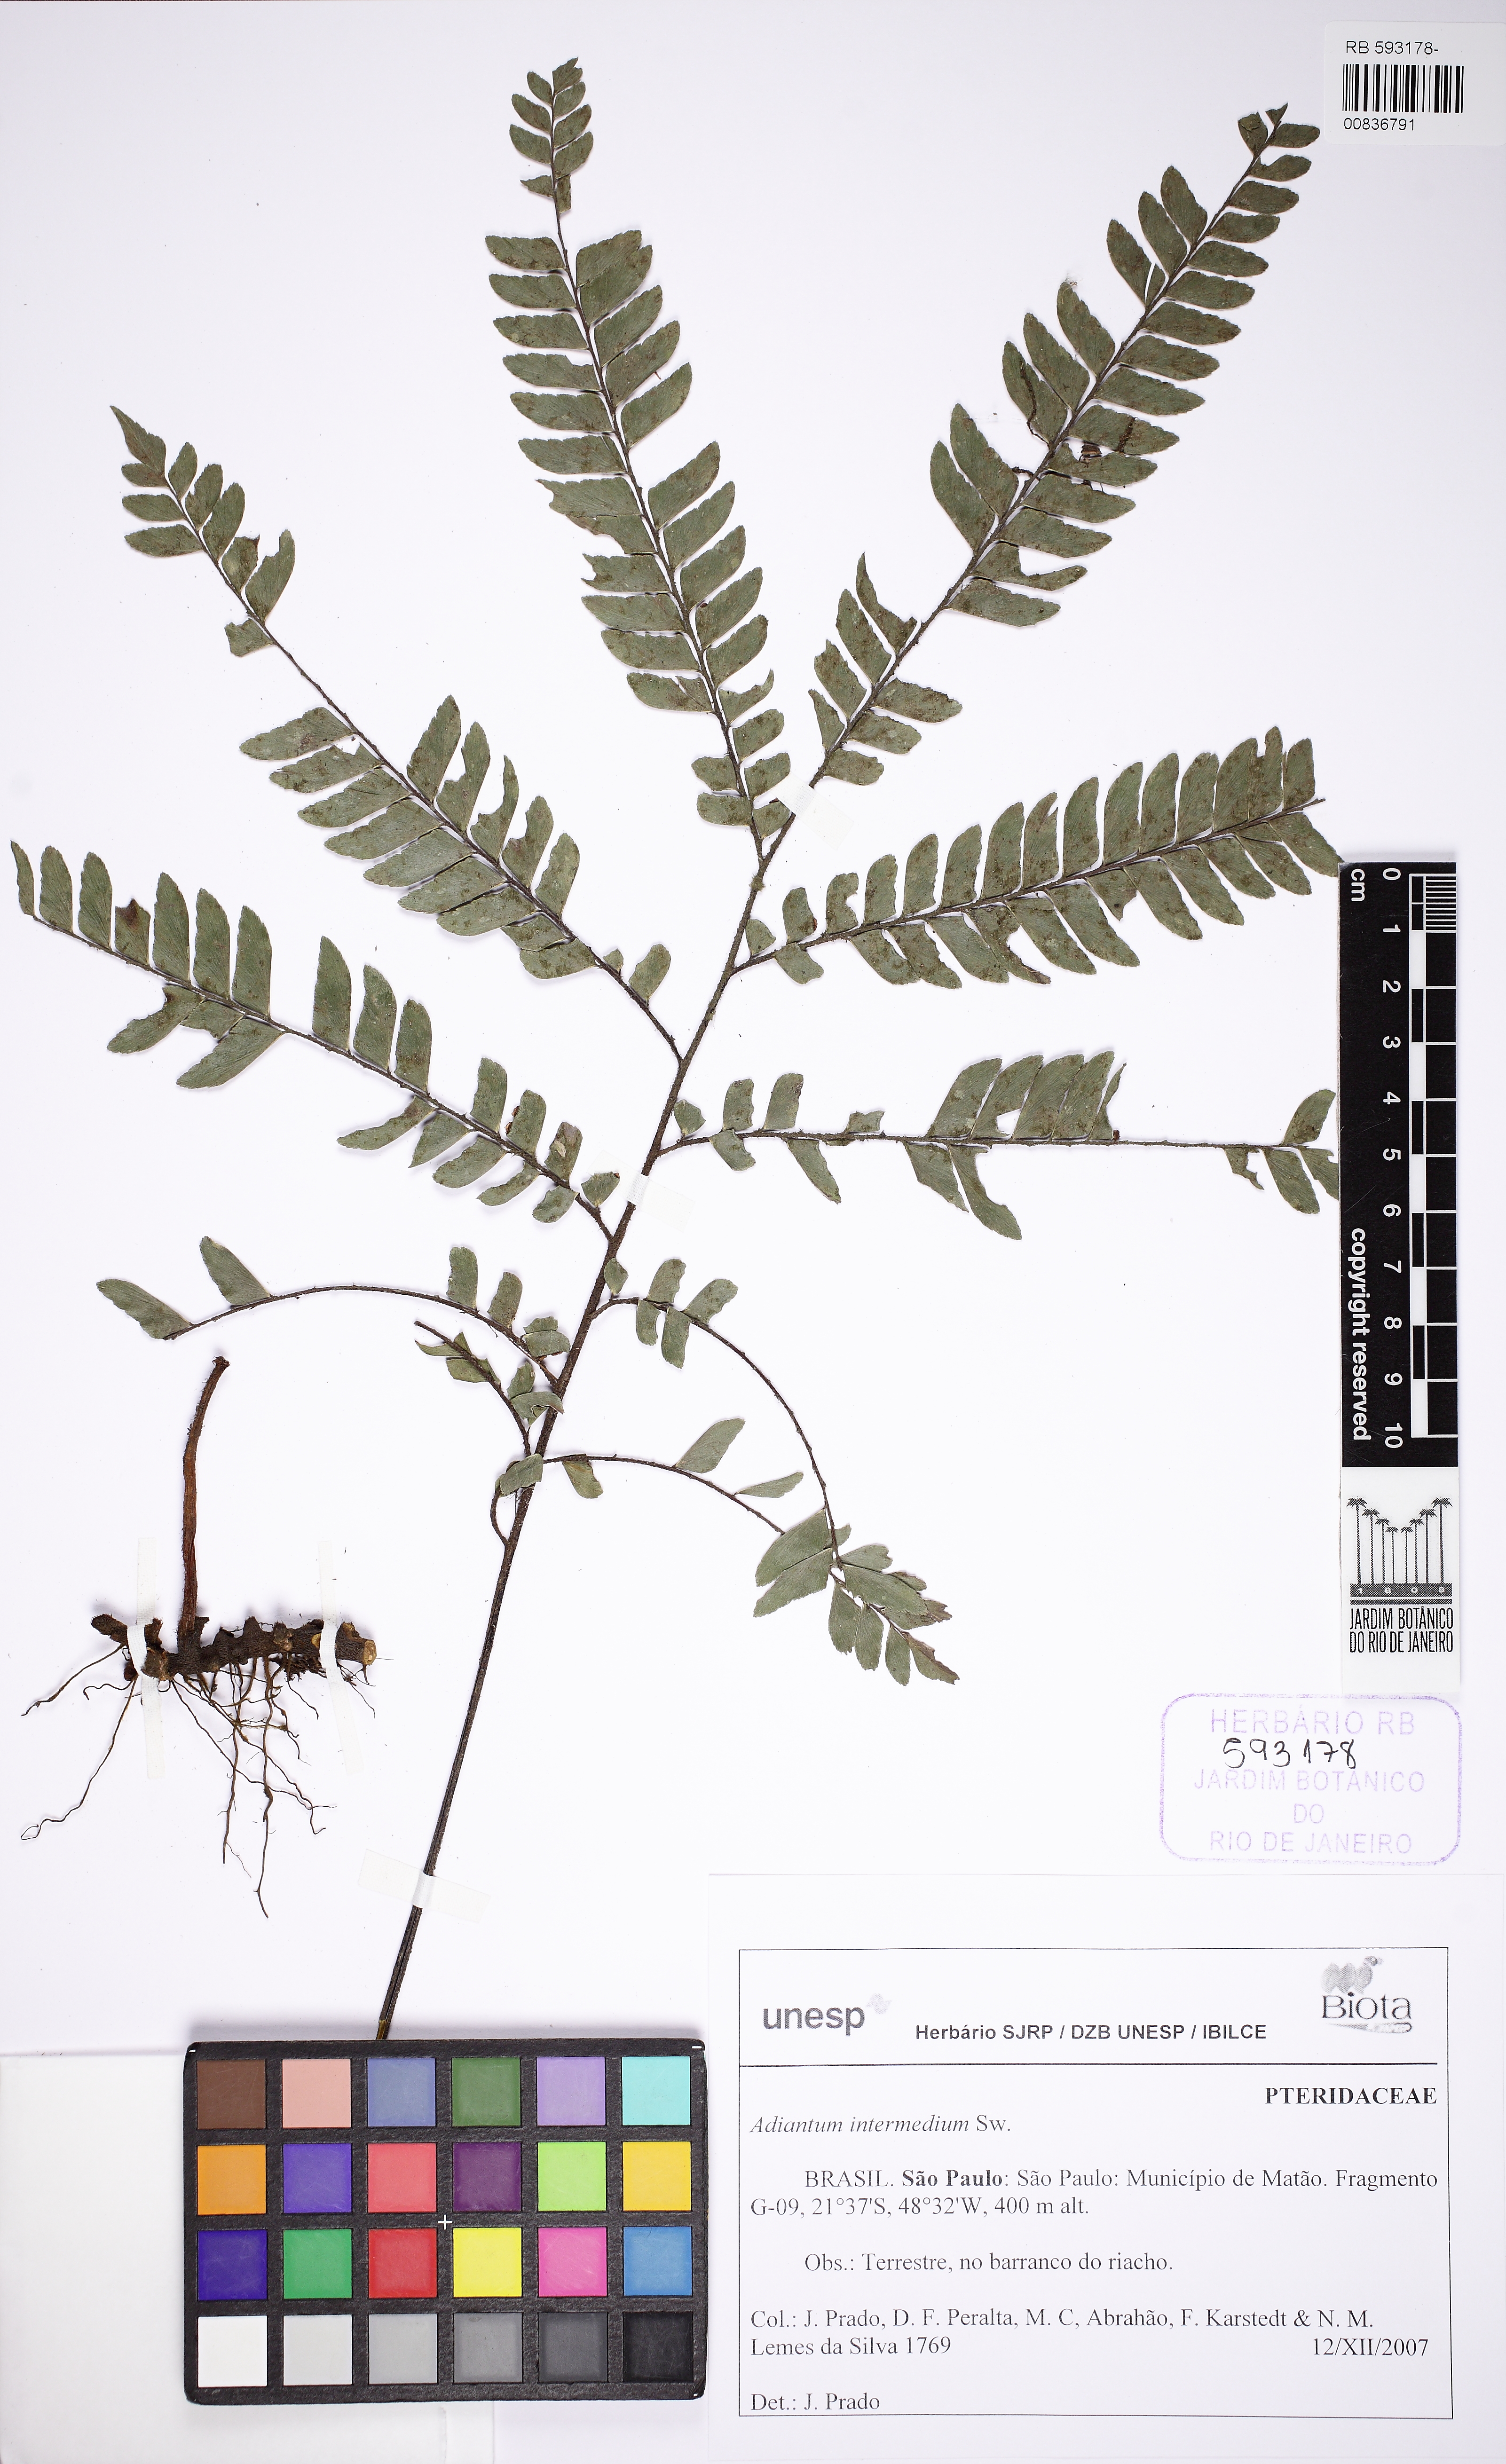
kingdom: Plantae
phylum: Tracheophyta
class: Polypodiopsida
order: Polypodiales
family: Pteridaceae
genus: Adiantum
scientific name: Adiantum intermedium
